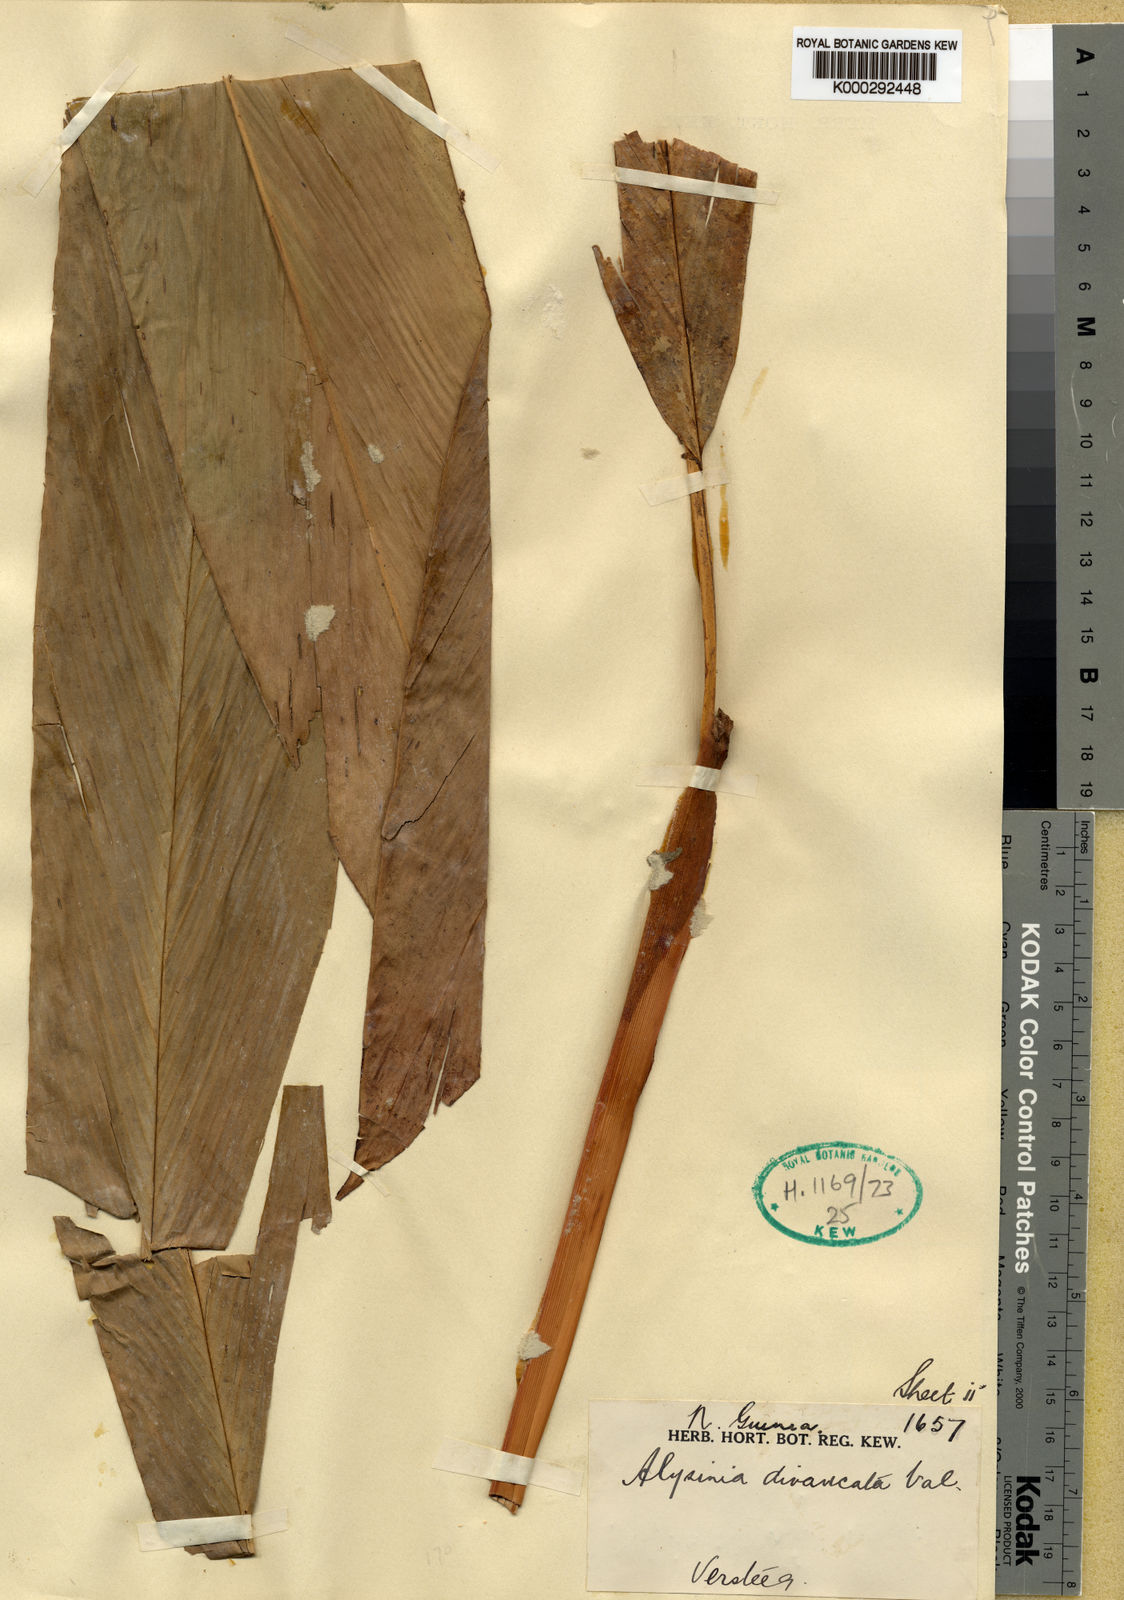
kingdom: Plantae
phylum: Tracheophyta
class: Liliopsida
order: Zingiberales
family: Zingiberaceae
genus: Alpinia
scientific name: Alpinia divaricata
